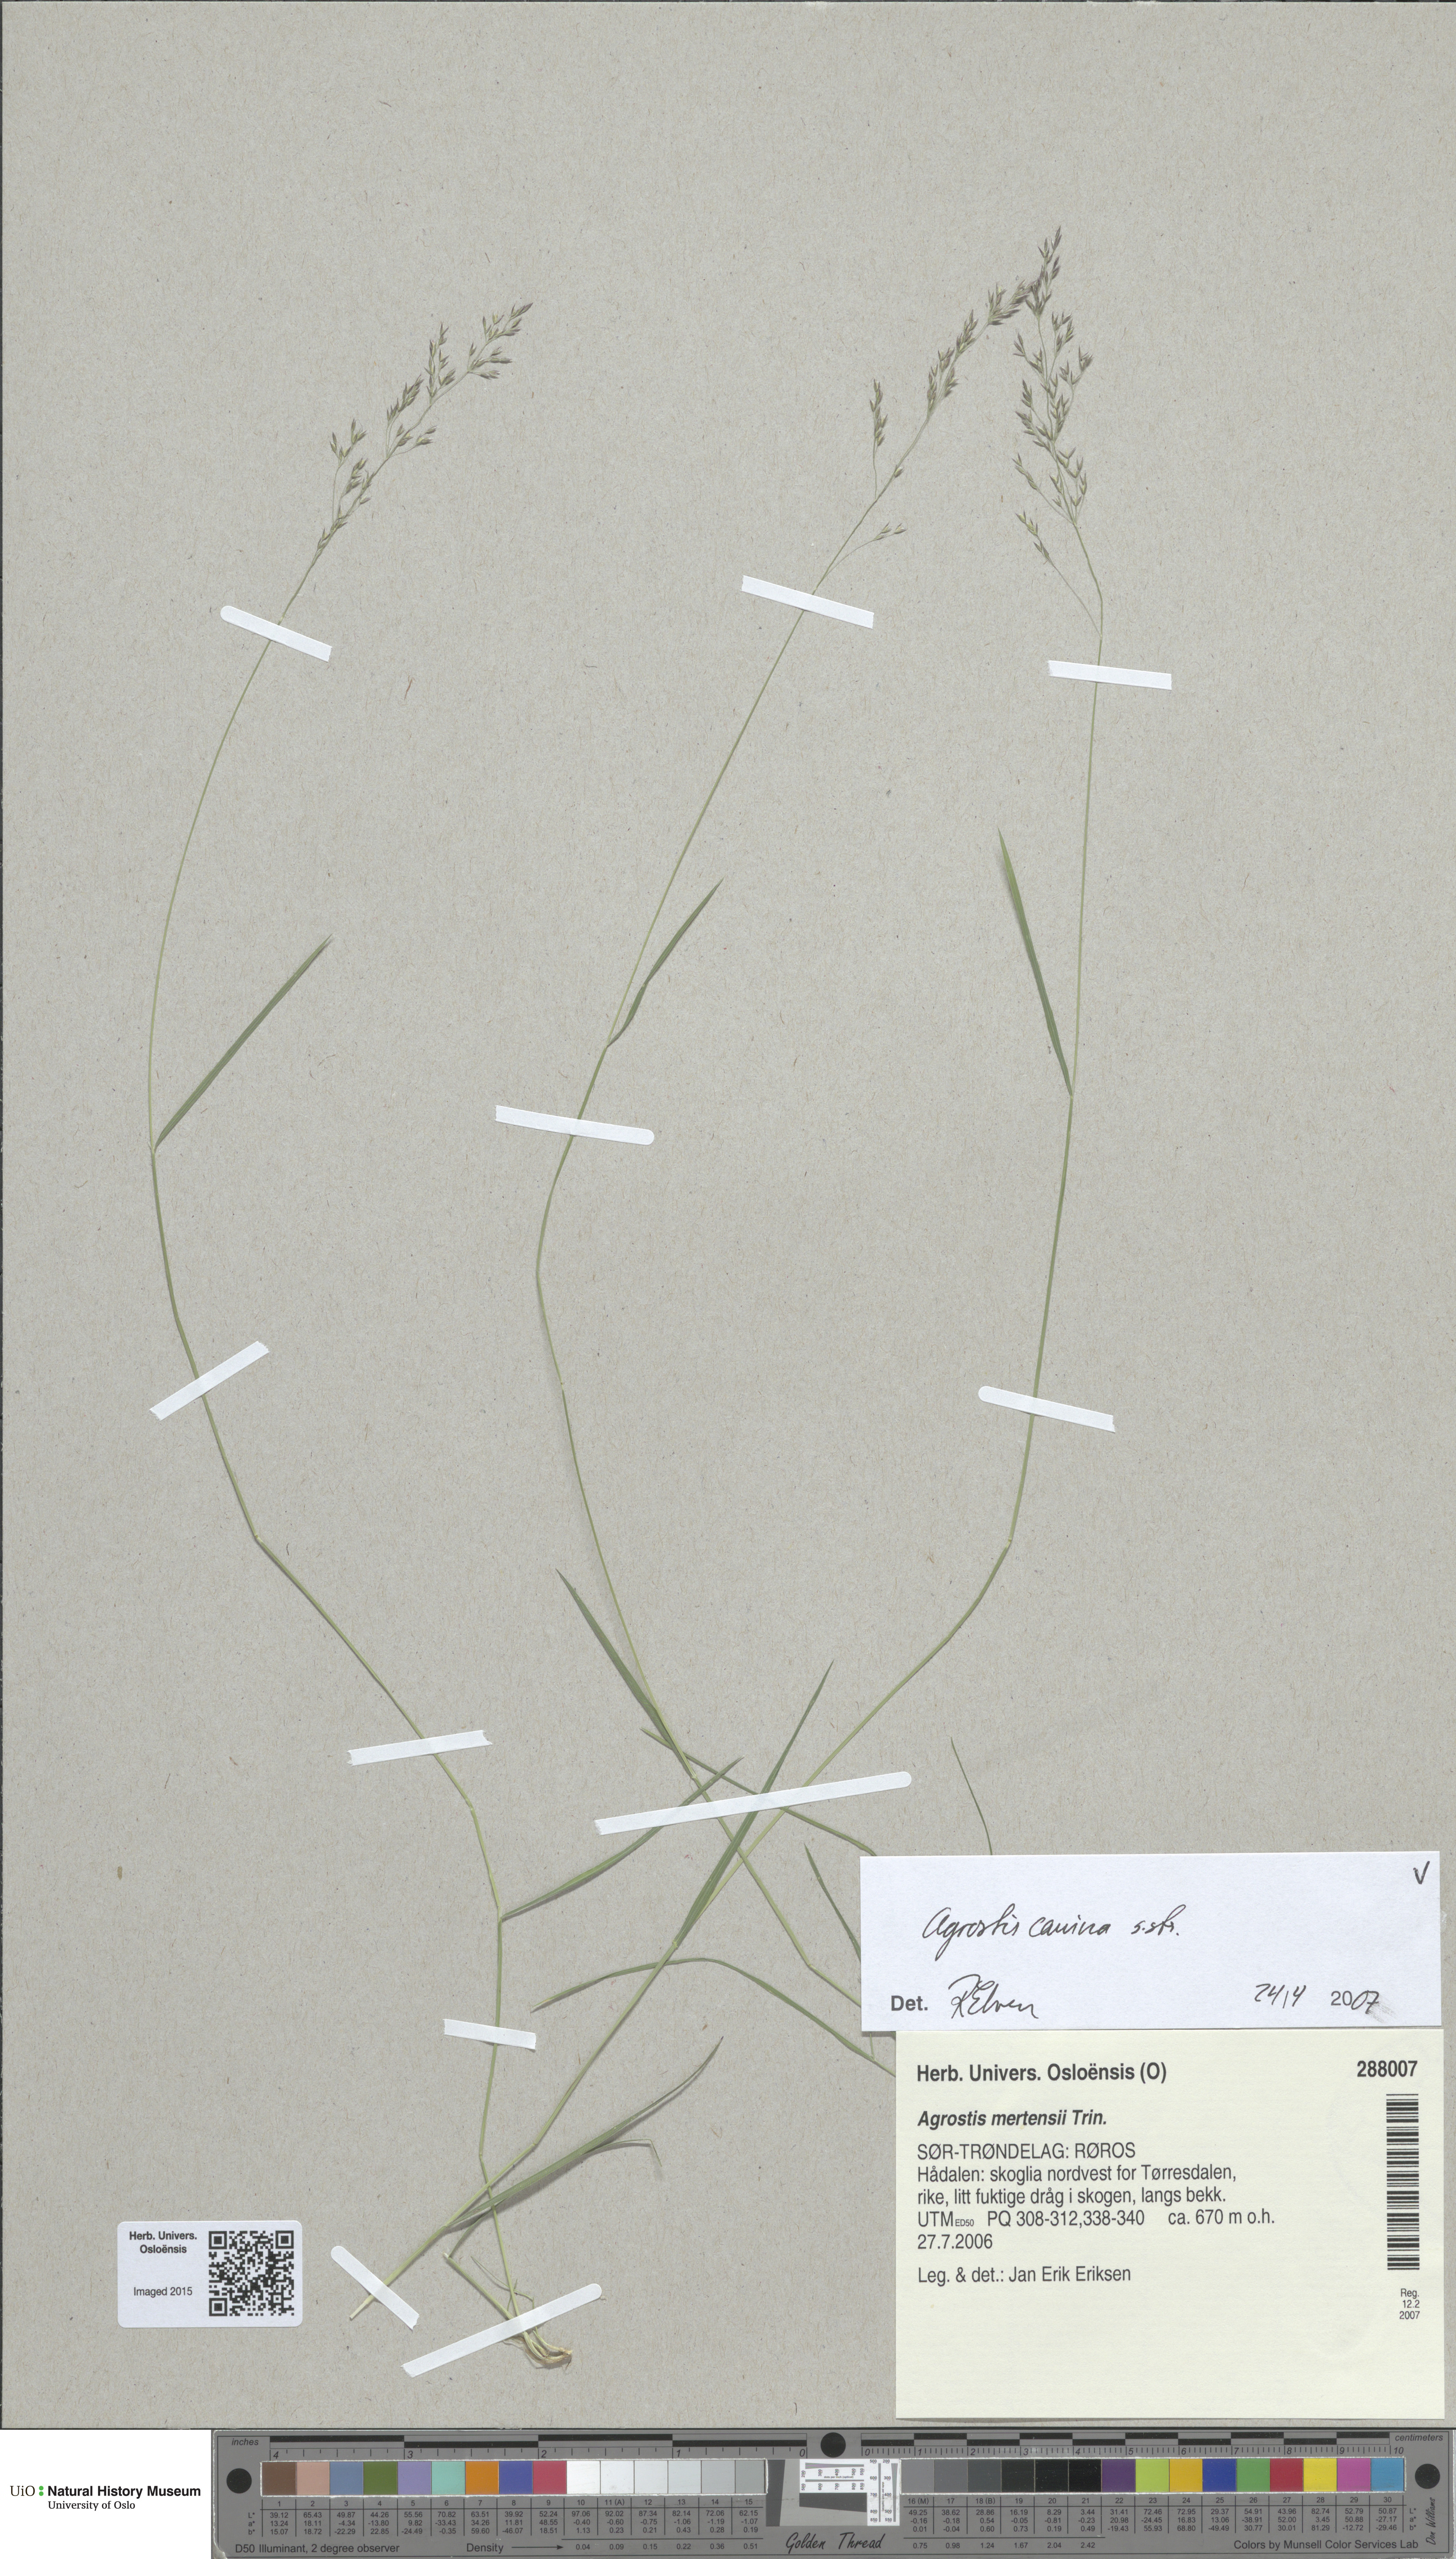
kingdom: Plantae
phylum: Tracheophyta
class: Liliopsida
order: Poales
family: Poaceae
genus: Agrostis
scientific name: Agrostis canina
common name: Velvet bent
